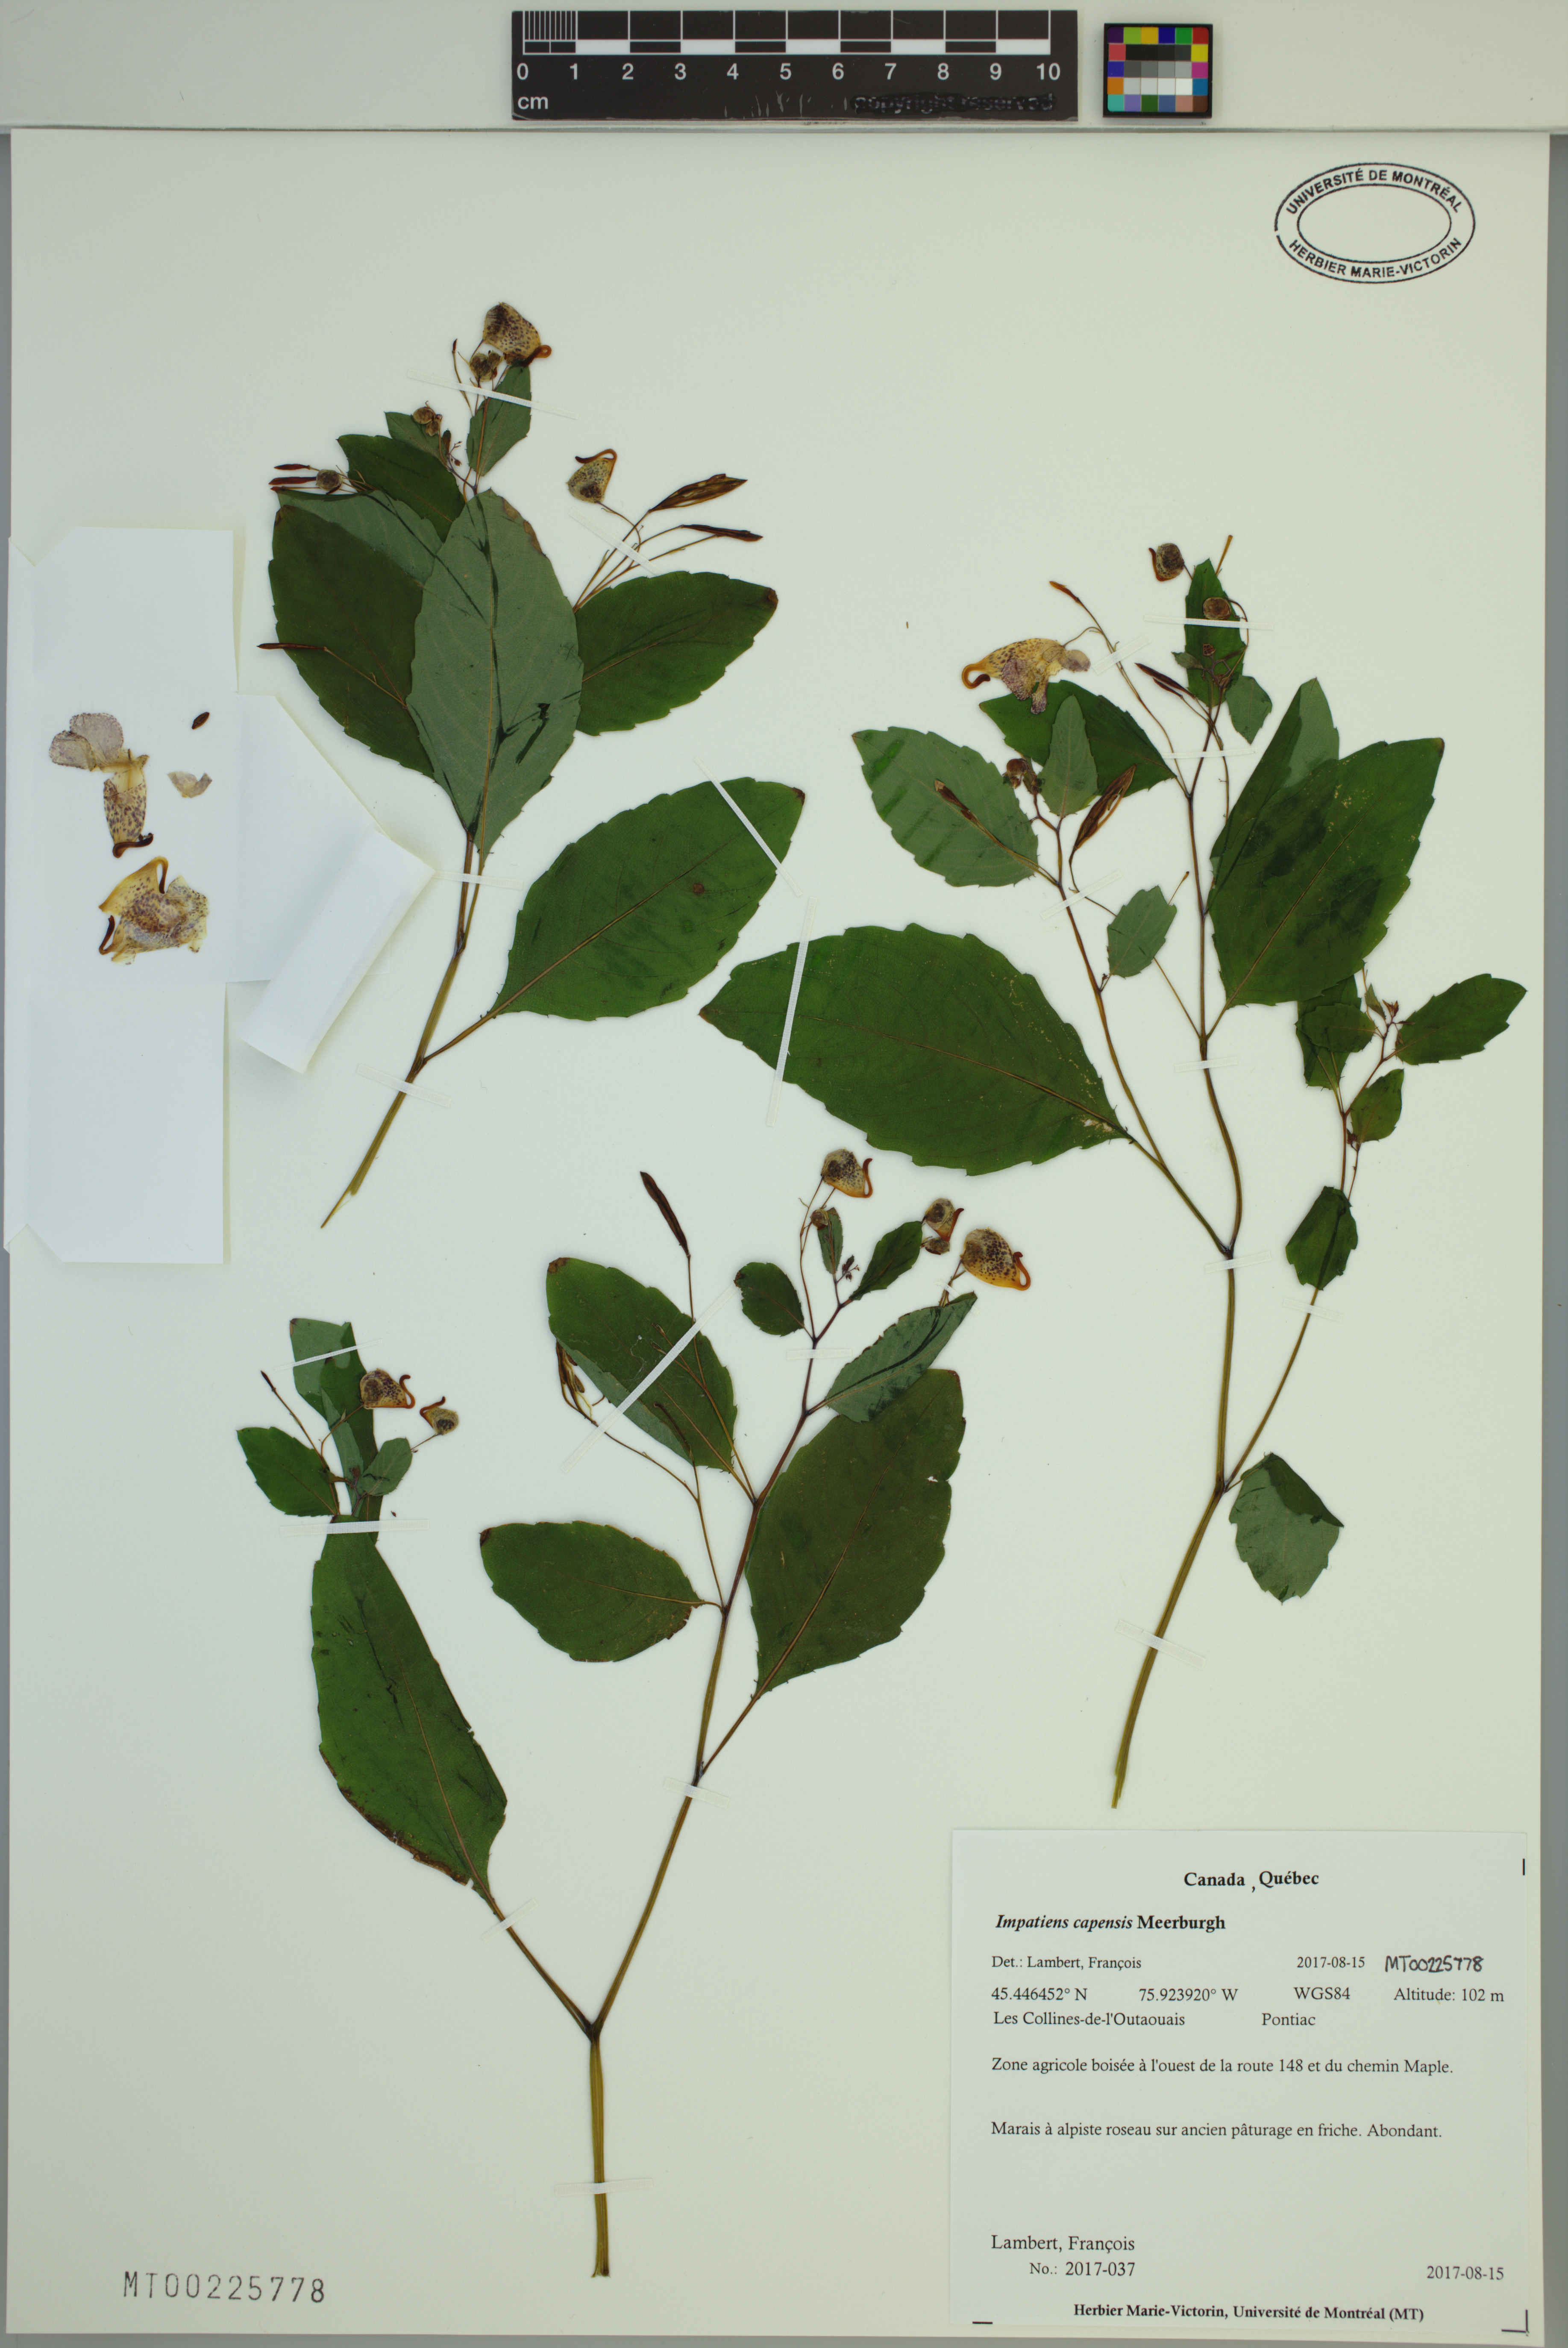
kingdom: Plantae
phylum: Tracheophyta
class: Magnoliopsida
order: Ericales
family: Balsaminaceae
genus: Impatiens
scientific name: Impatiens capensis
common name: Orange balsam
